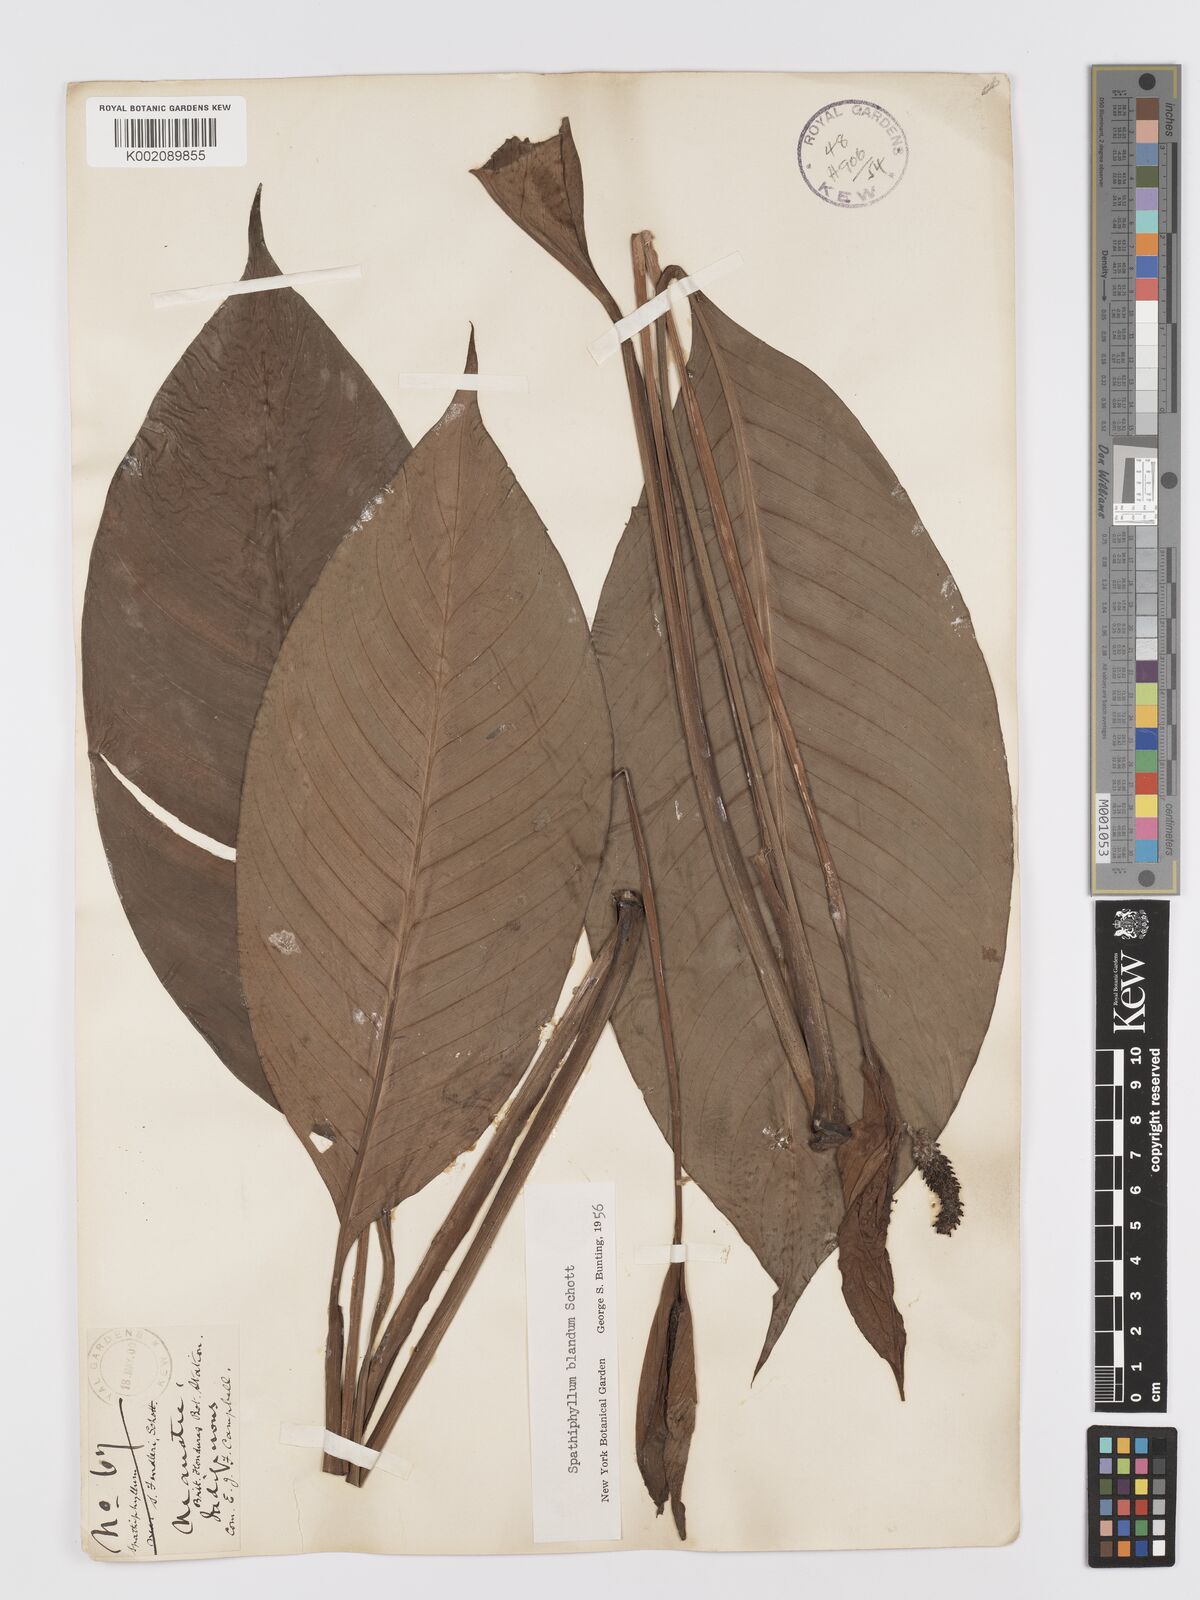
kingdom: Plantae
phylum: Tracheophyta
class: Liliopsida
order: Alismatales
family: Araceae
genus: Spathiphyllum
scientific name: Spathiphyllum blandum
